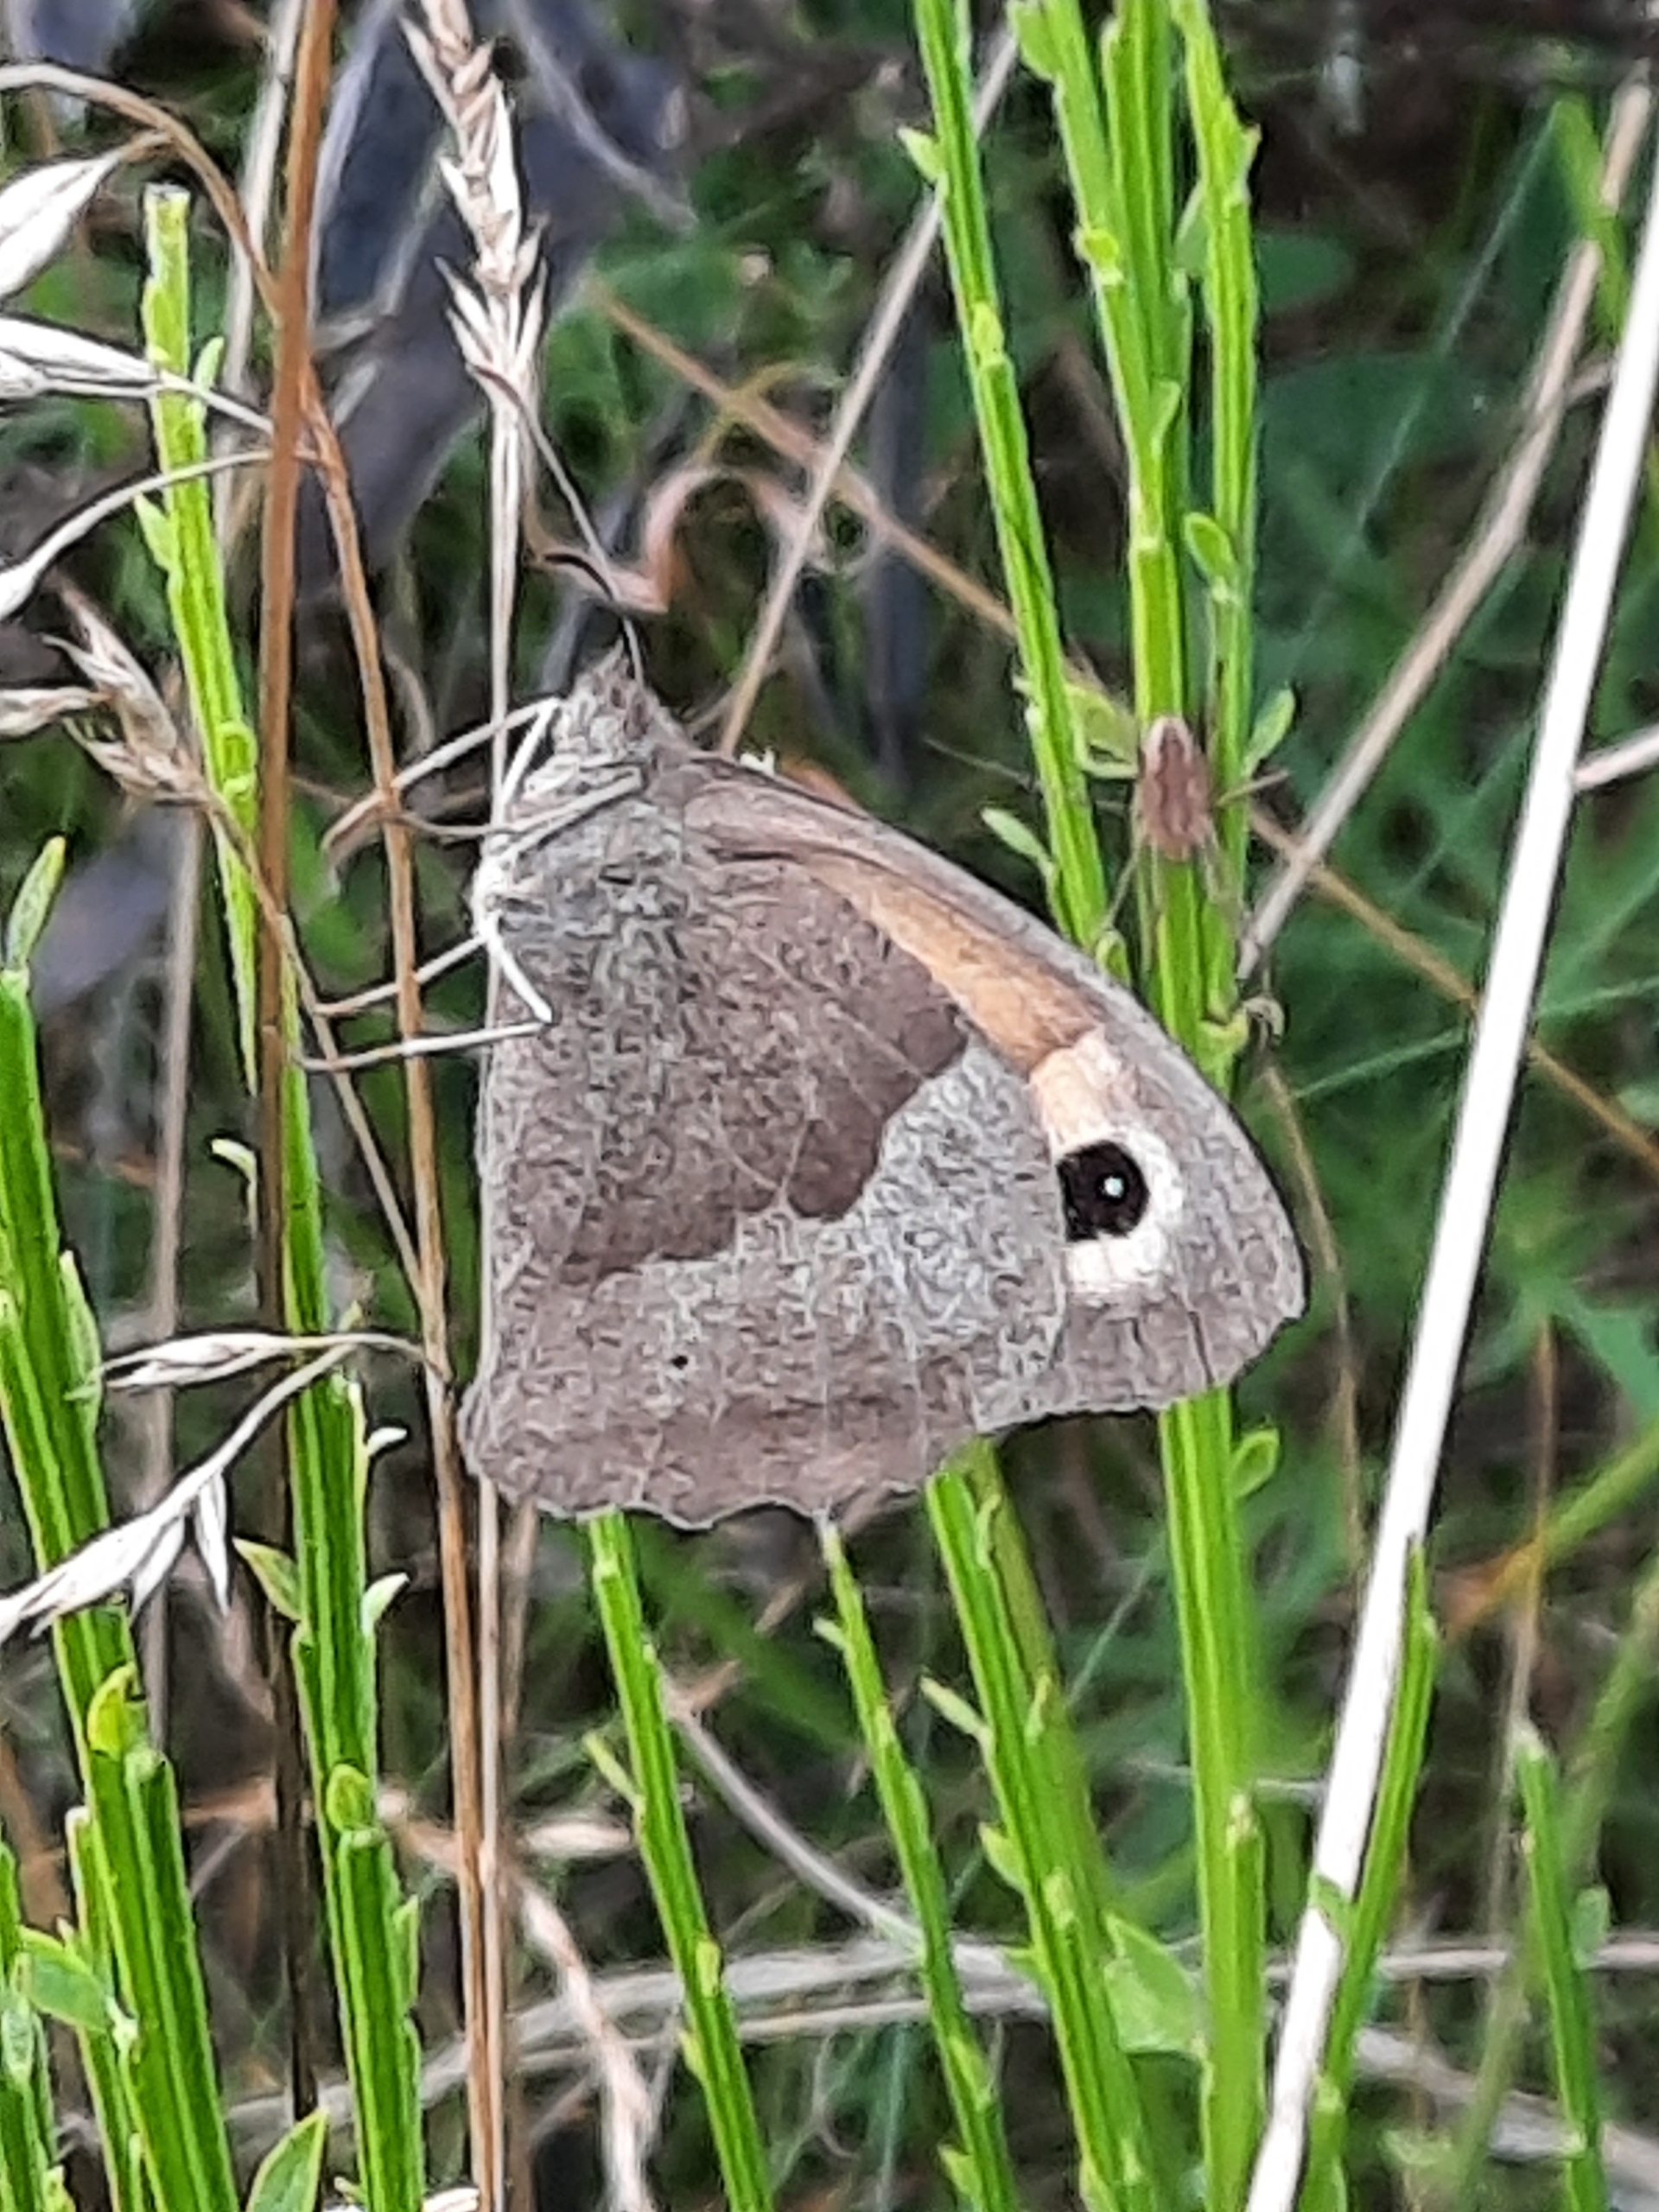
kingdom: Animalia
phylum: Arthropoda
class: Insecta
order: Lepidoptera
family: Nymphalidae
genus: Maniola
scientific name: Maniola jurtina
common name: Græsrandøje
